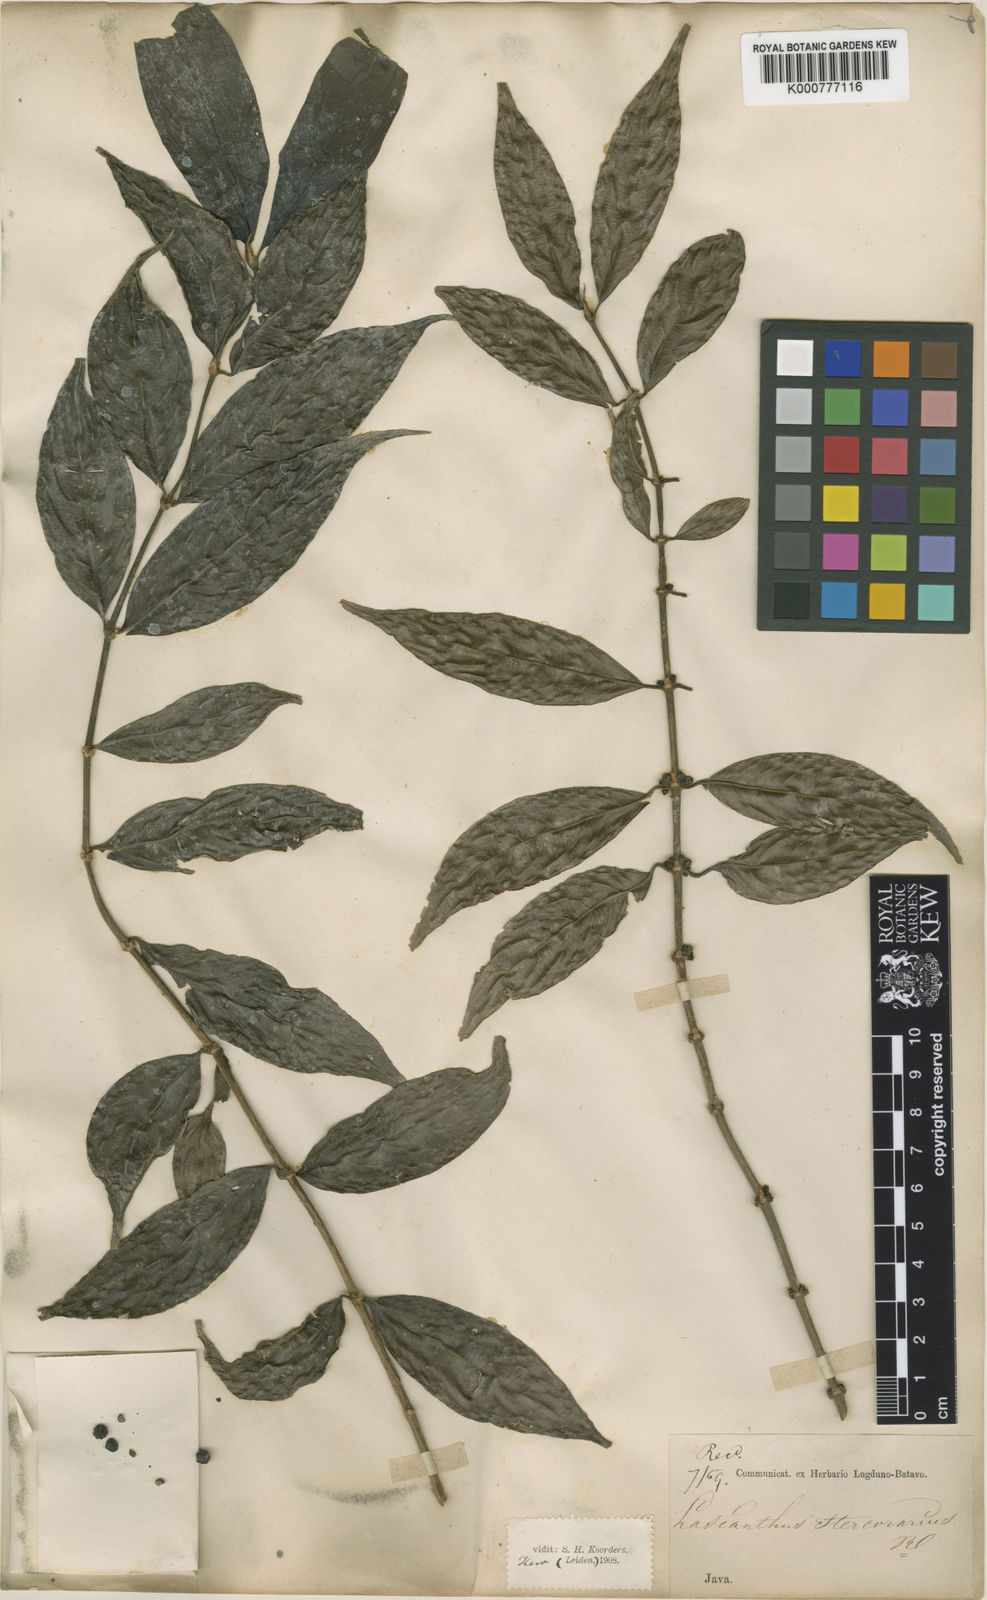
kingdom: Plantae
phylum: Tracheophyta
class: Magnoliopsida
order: Gentianales
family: Rubiaceae
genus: Lasianthus
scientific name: Lasianthus stercorarius
